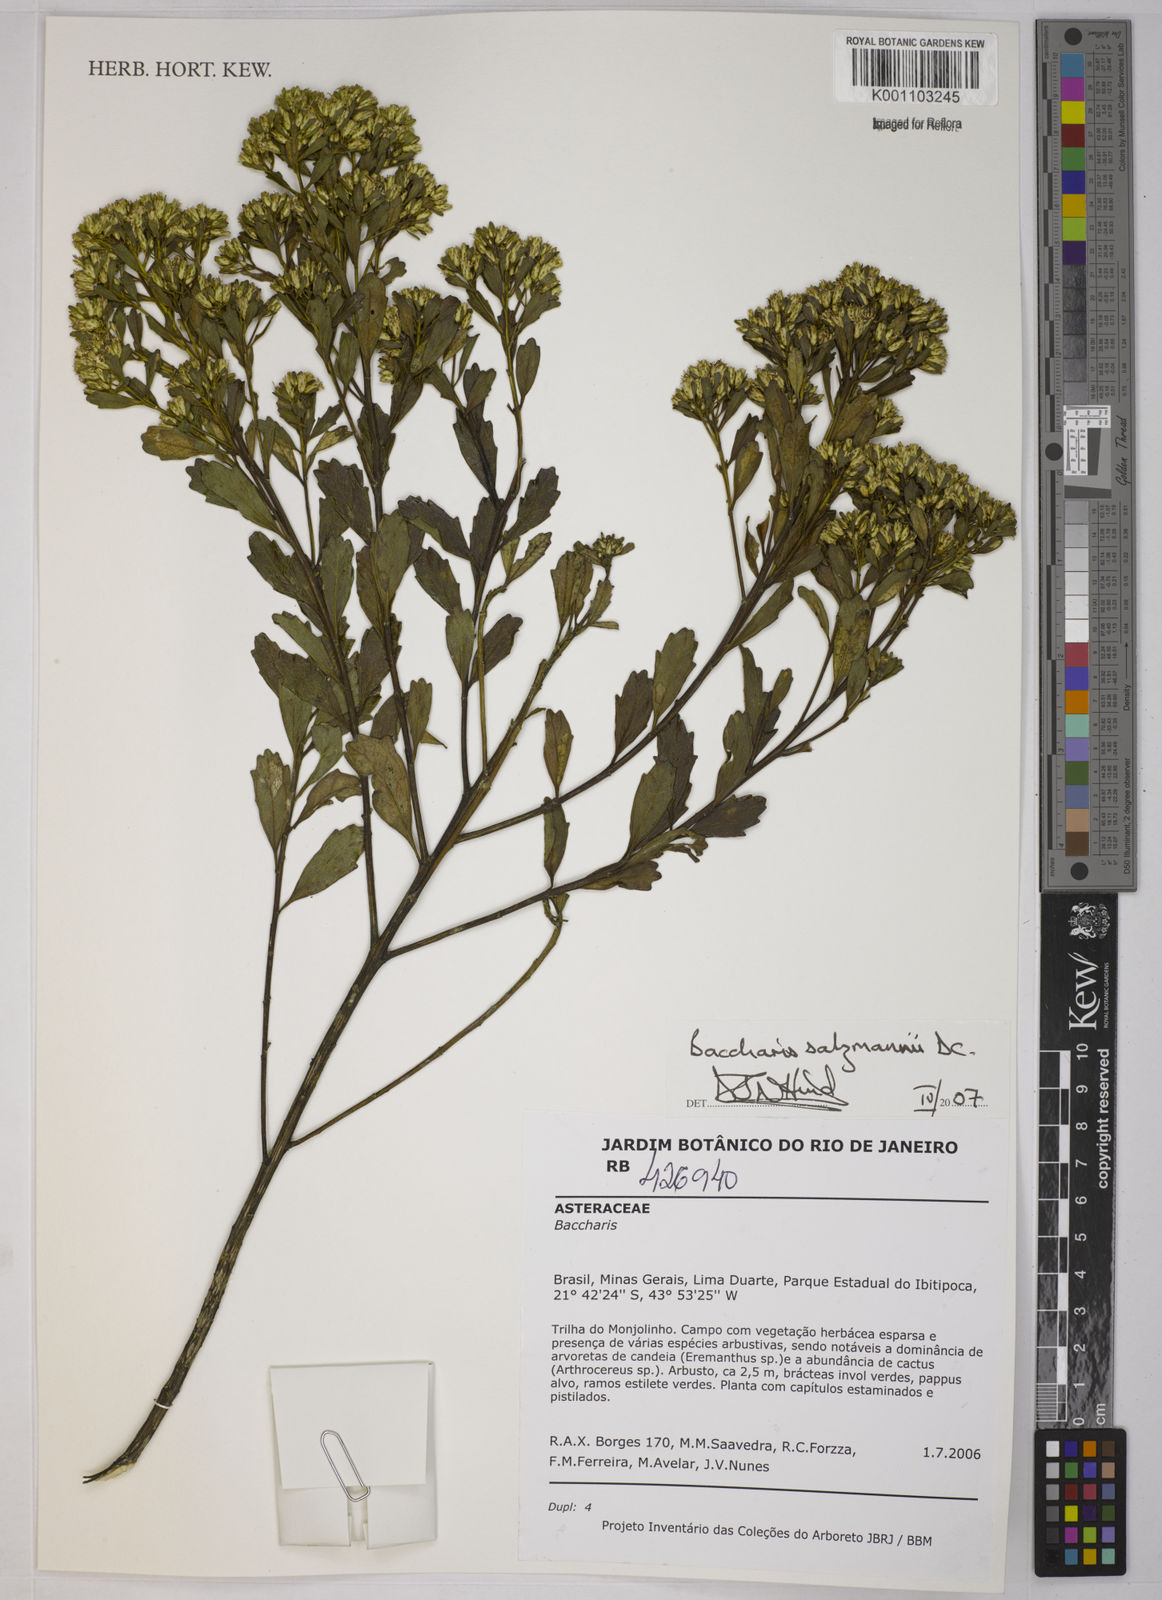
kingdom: Plantae
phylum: Tracheophyta
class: Magnoliopsida
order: Asterales
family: Asteraceae
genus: Baccharis
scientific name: Baccharis retusa
